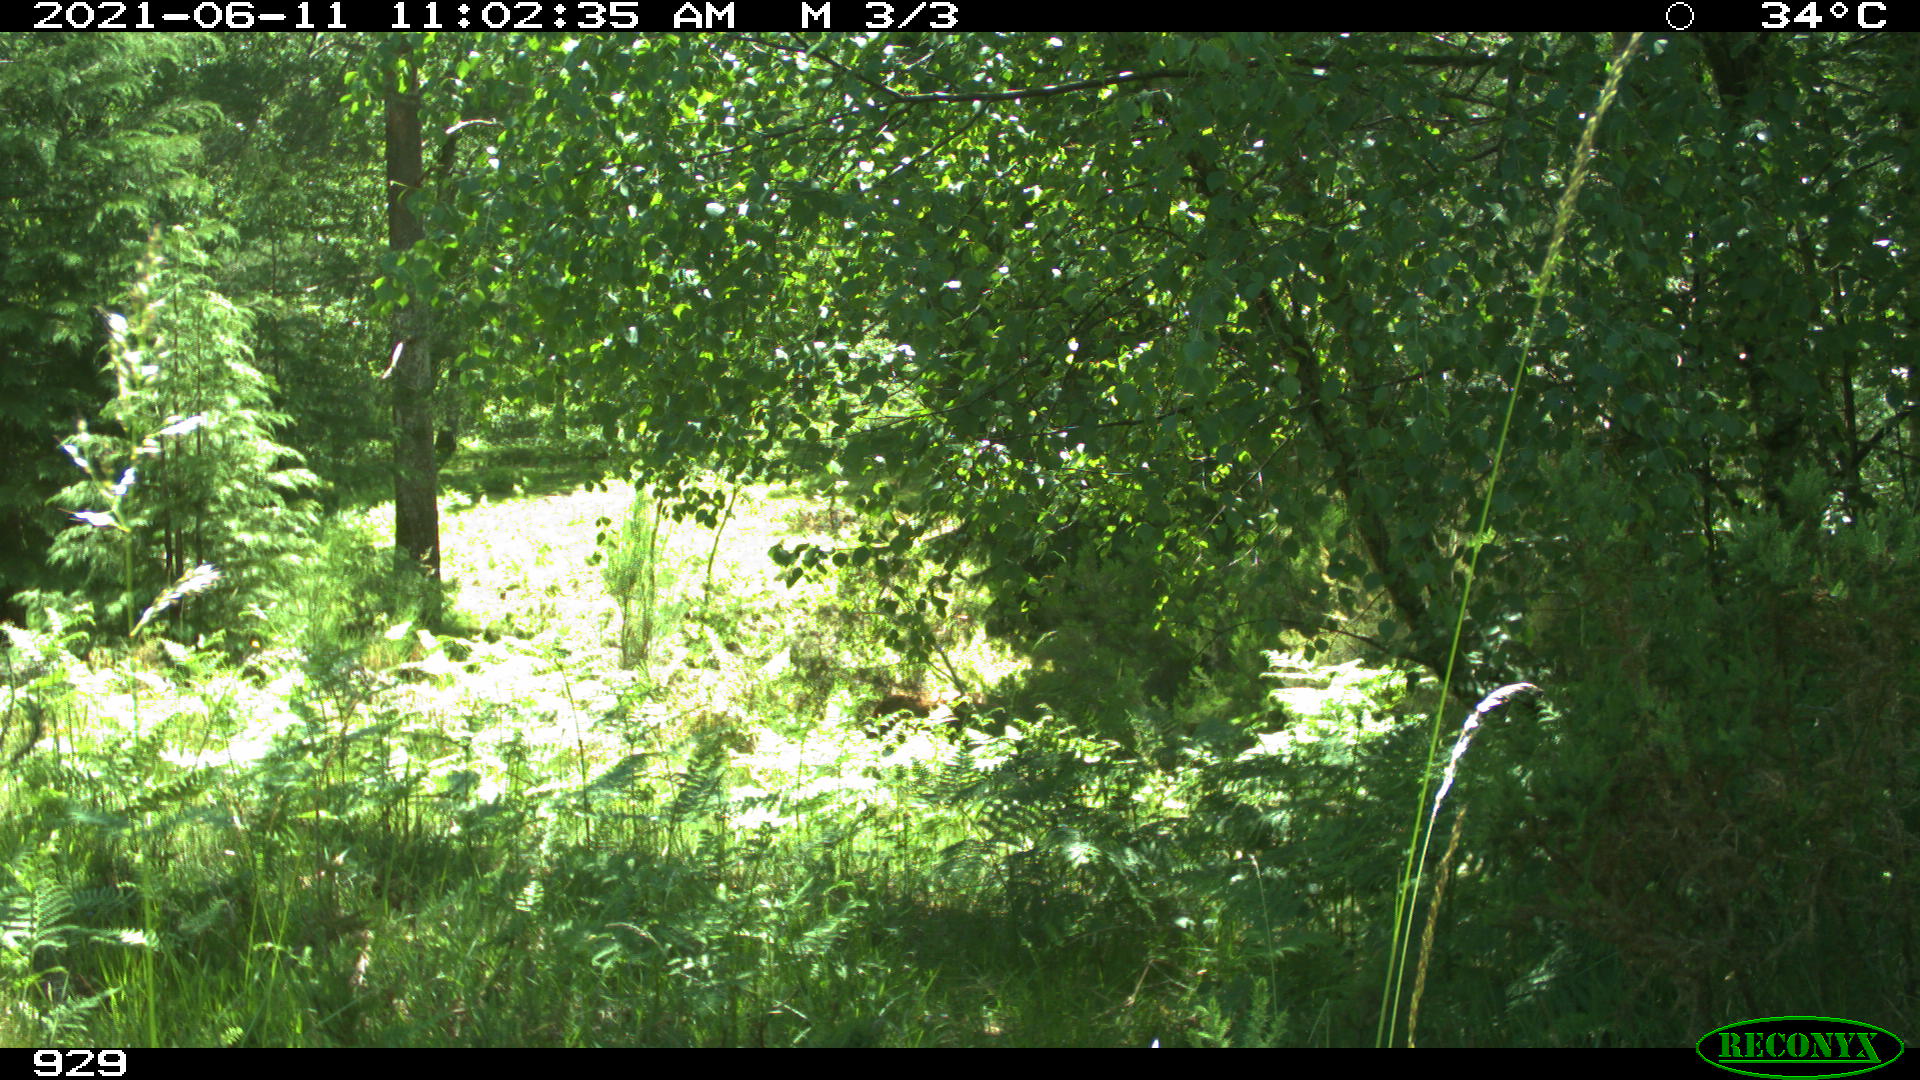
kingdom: Animalia
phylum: Chordata
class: Mammalia
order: Artiodactyla
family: Bovidae
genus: Bos
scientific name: Bos taurus
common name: Domesticated cattle
